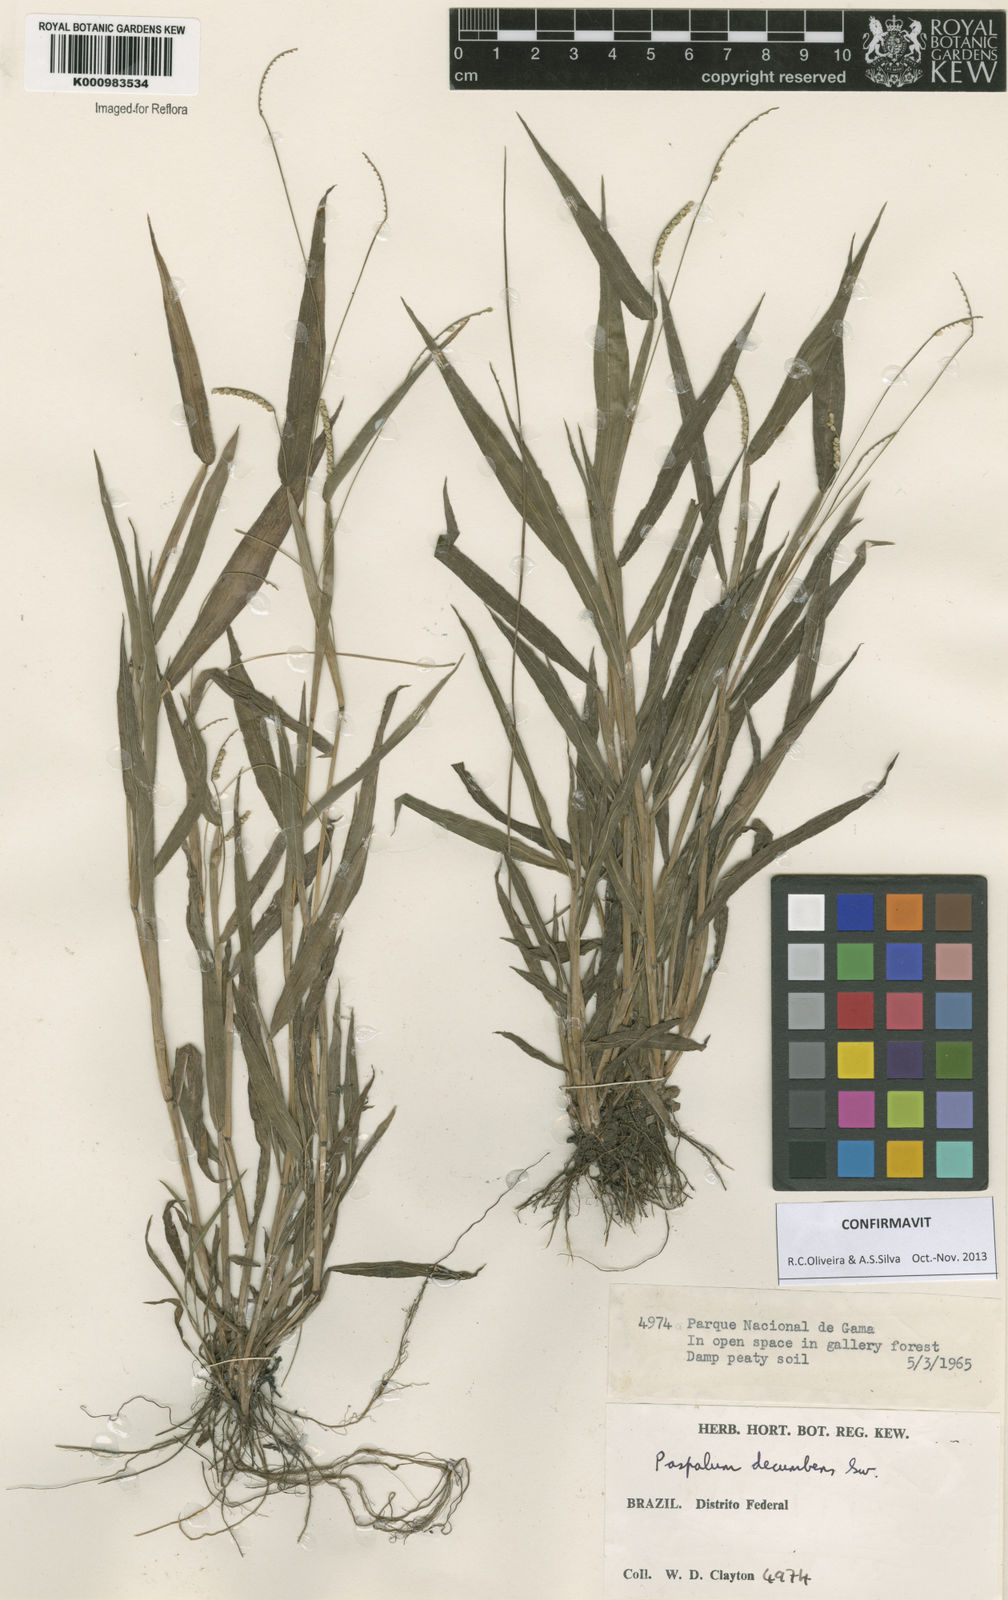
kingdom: Plantae
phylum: Tracheophyta
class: Liliopsida
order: Poales
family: Poaceae
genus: Paspalum
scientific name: Paspalum decumbens
